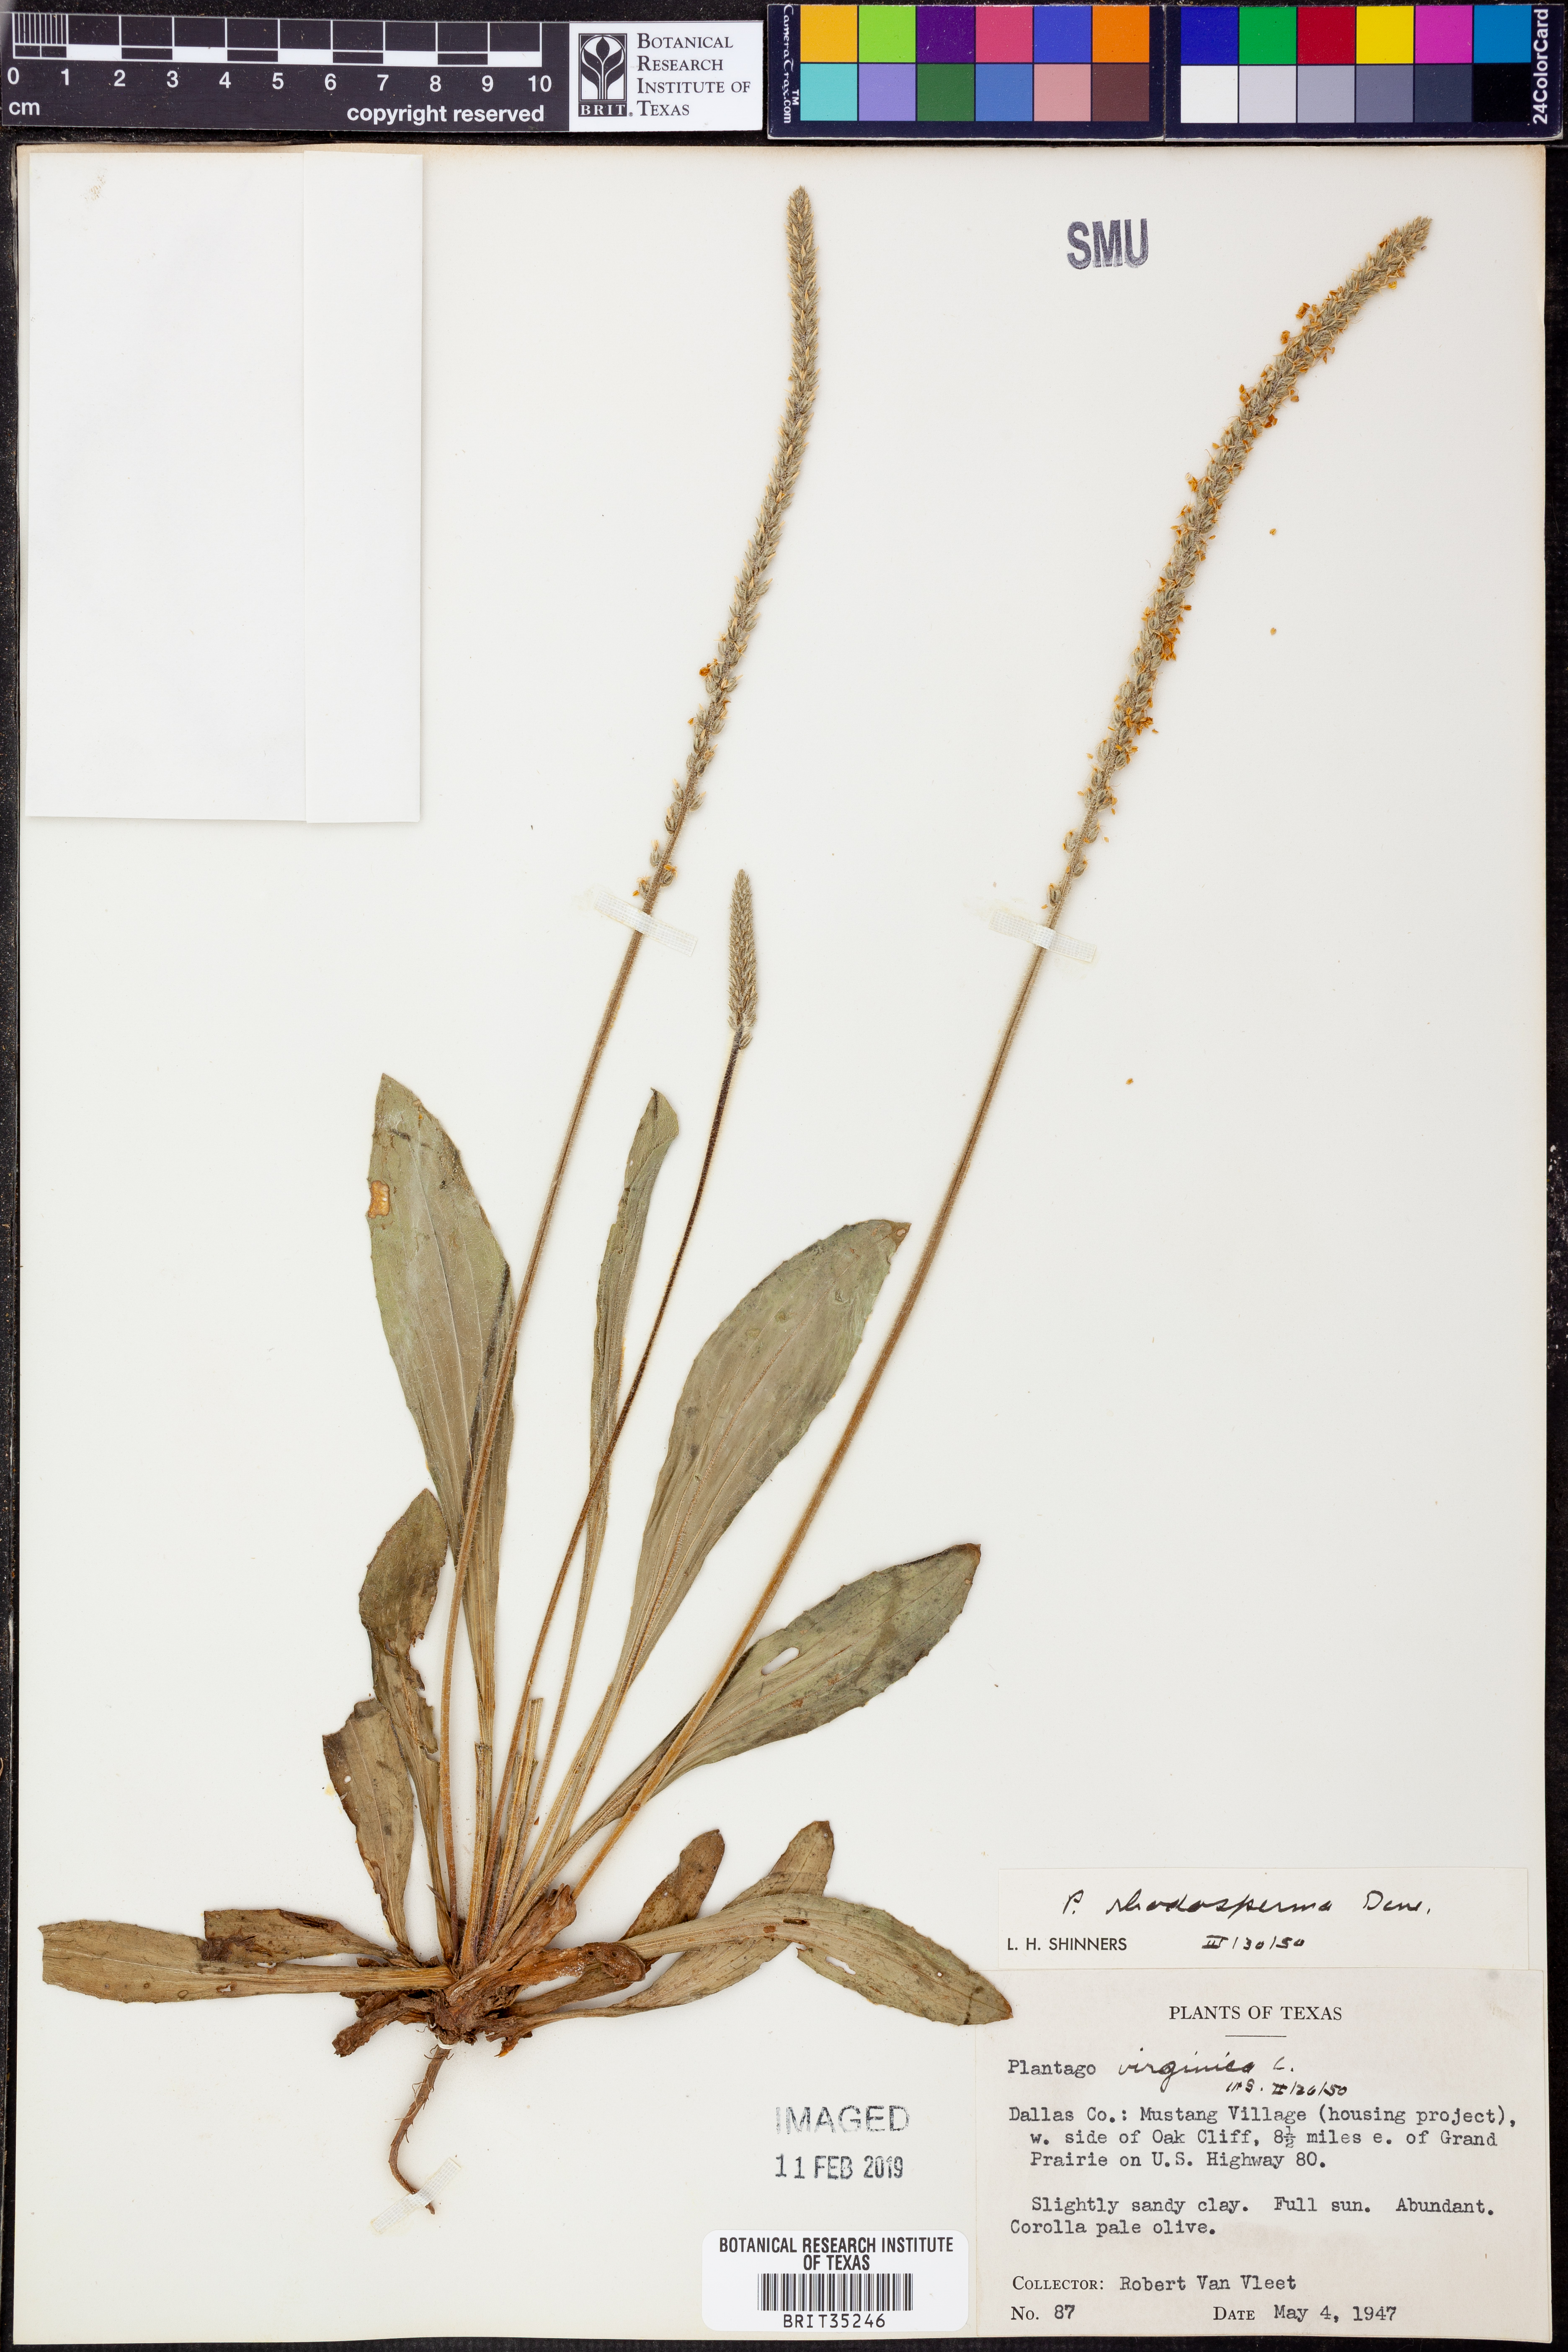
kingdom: Plantae
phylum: Tracheophyta
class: Magnoliopsida
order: Lamiales
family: Plantaginaceae
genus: Plantago
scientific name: Plantago rhodosperma
